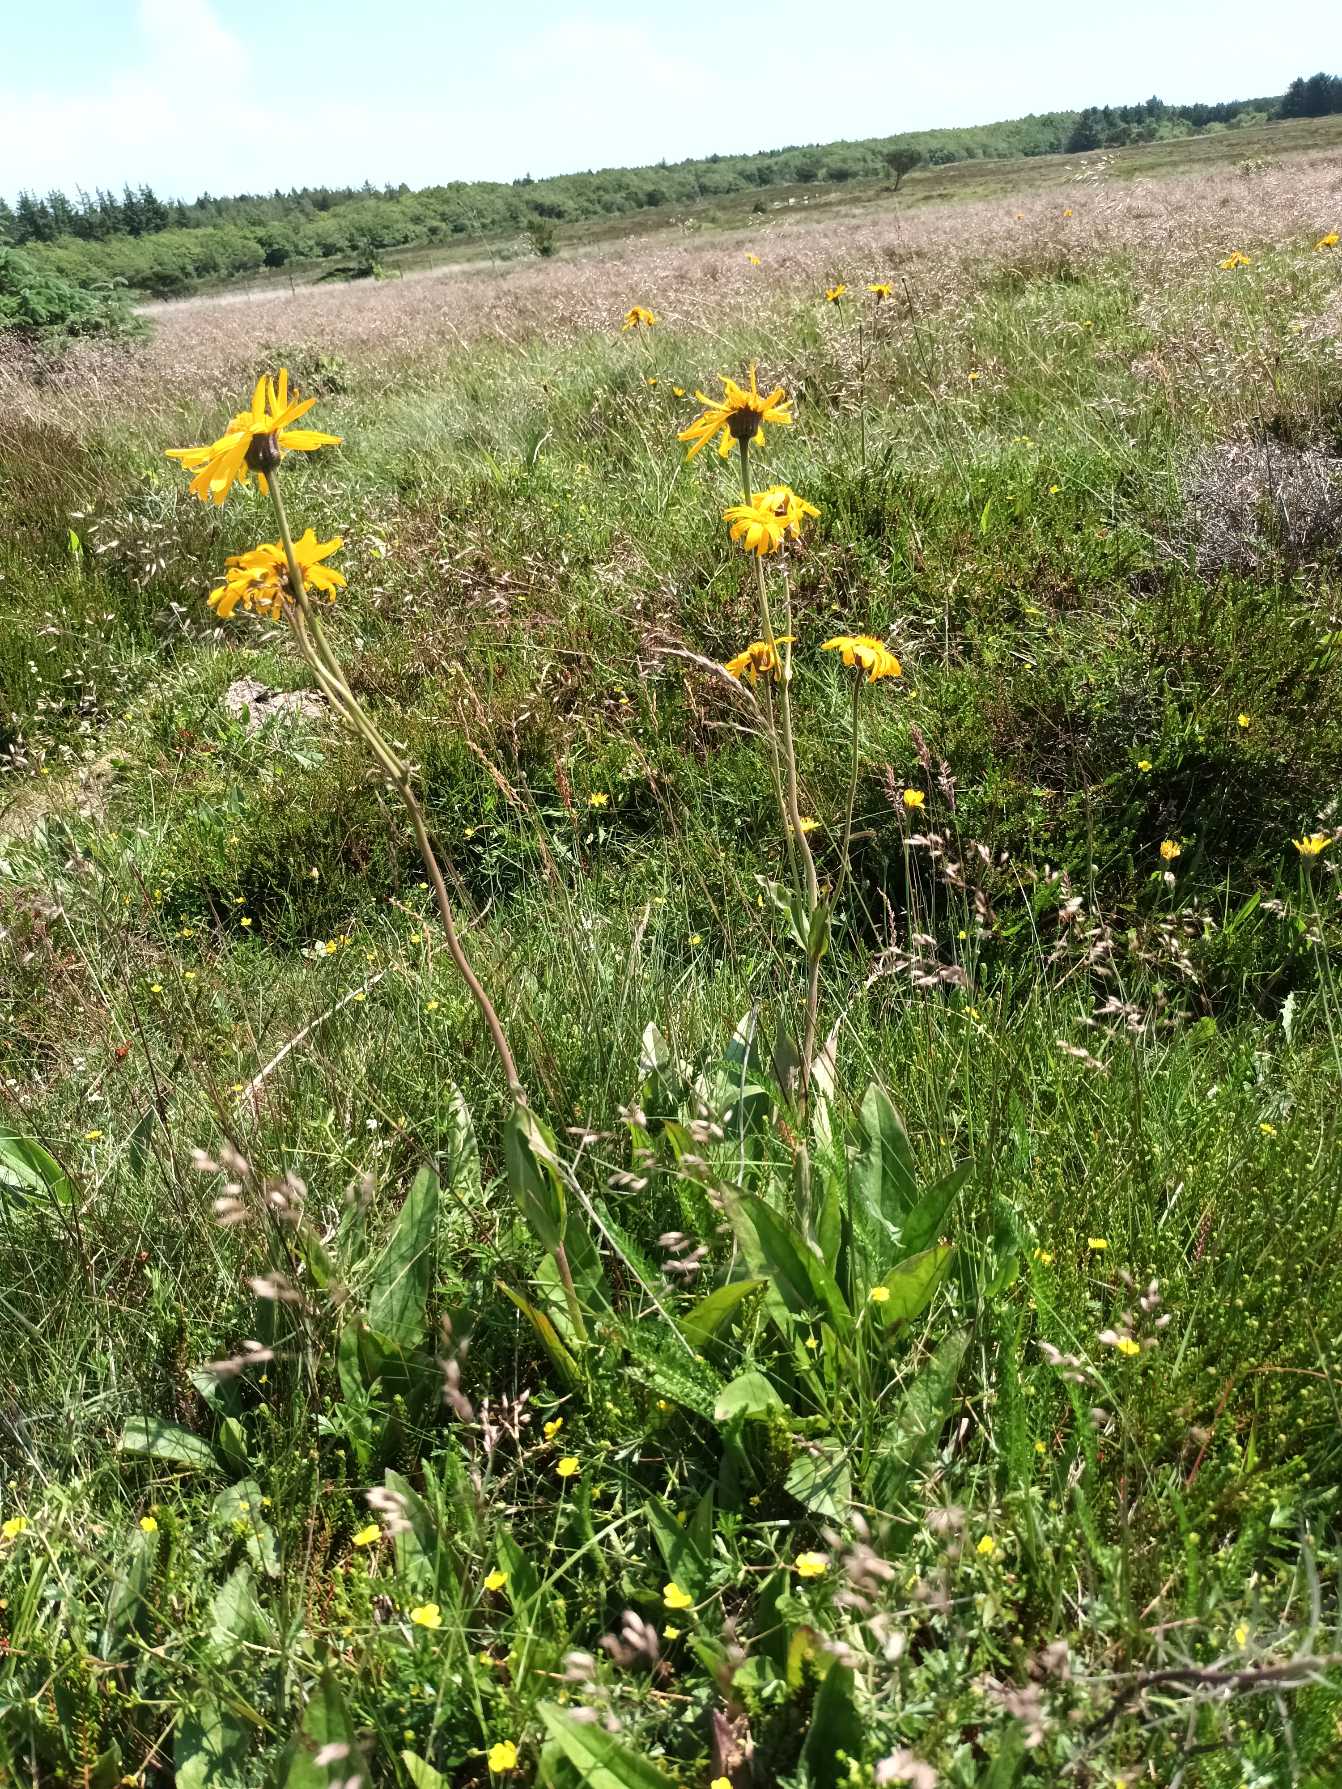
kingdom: Plantae
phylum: Tracheophyta
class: Magnoliopsida
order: Asterales
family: Asteraceae
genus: Arnica
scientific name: Arnica montana
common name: Guldblomme
